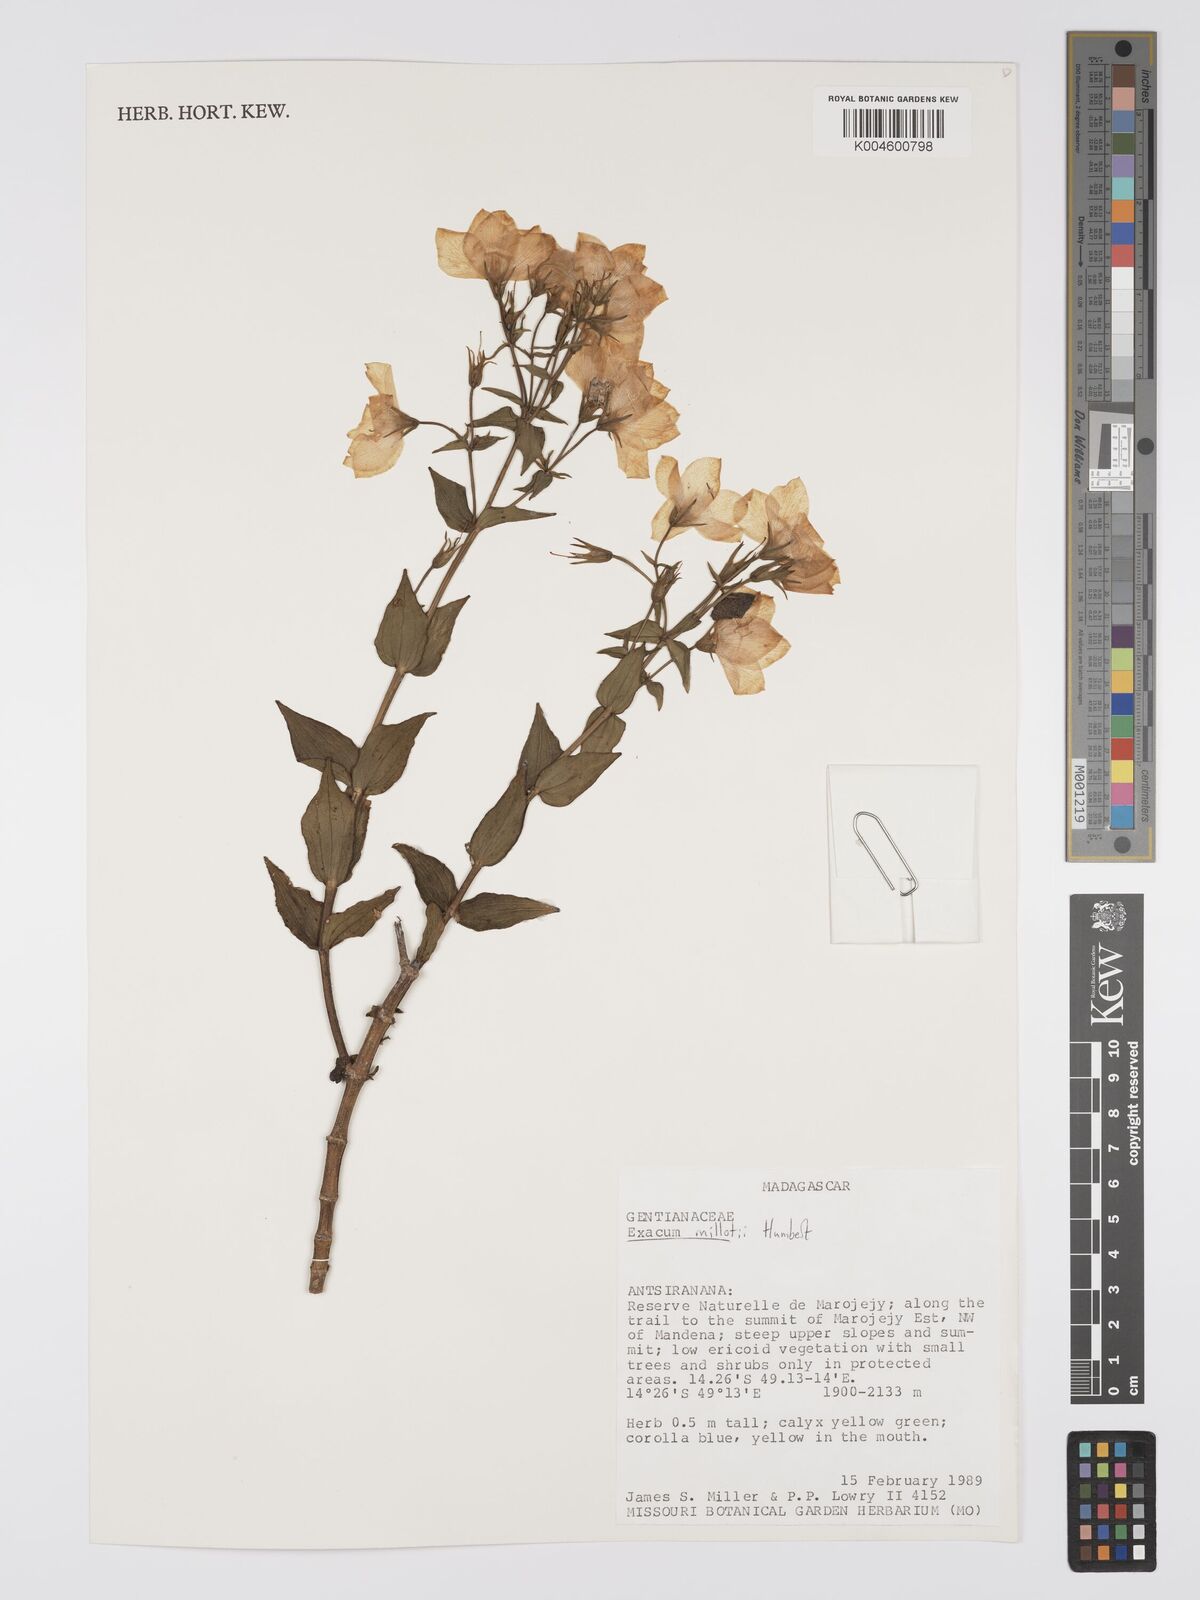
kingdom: Plantae
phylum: Tracheophyta
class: Magnoliopsida
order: Gentianales
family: Gentianaceae
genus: Exacum
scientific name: Exacum millotii
